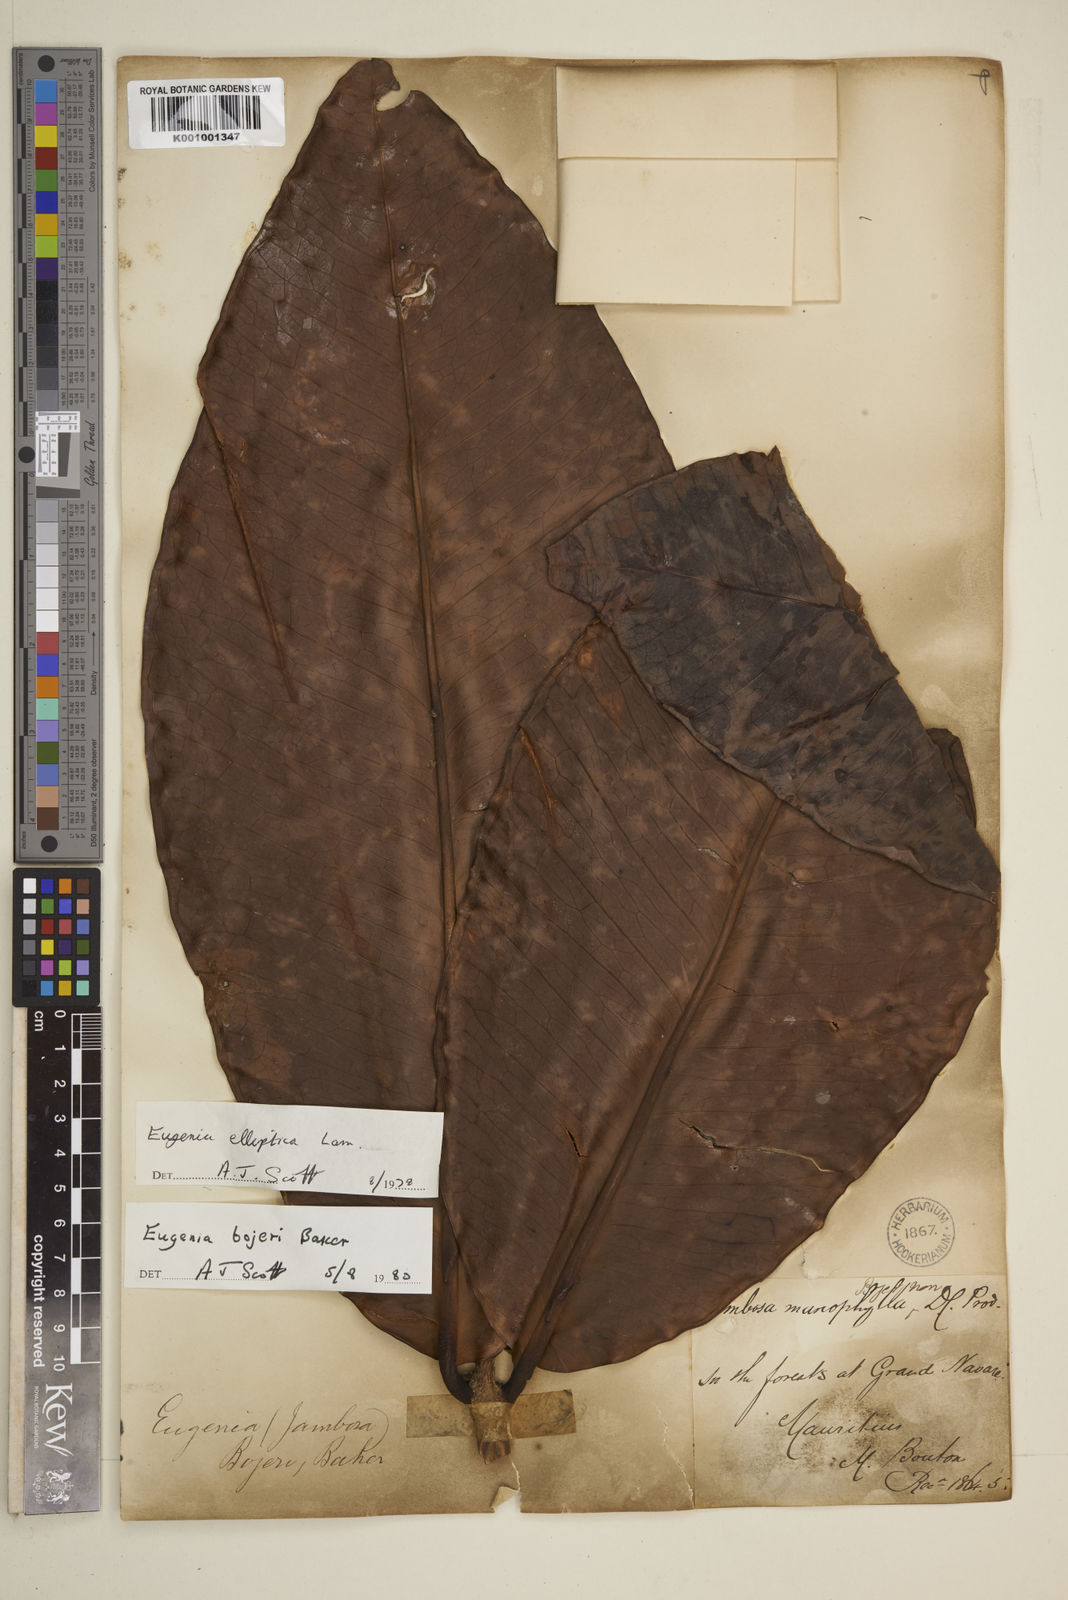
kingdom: Plantae
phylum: Tracheophyta
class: Magnoliopsida
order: Myrtales
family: Myrtaceae
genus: Eugenia
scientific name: Eugenia elliptica
